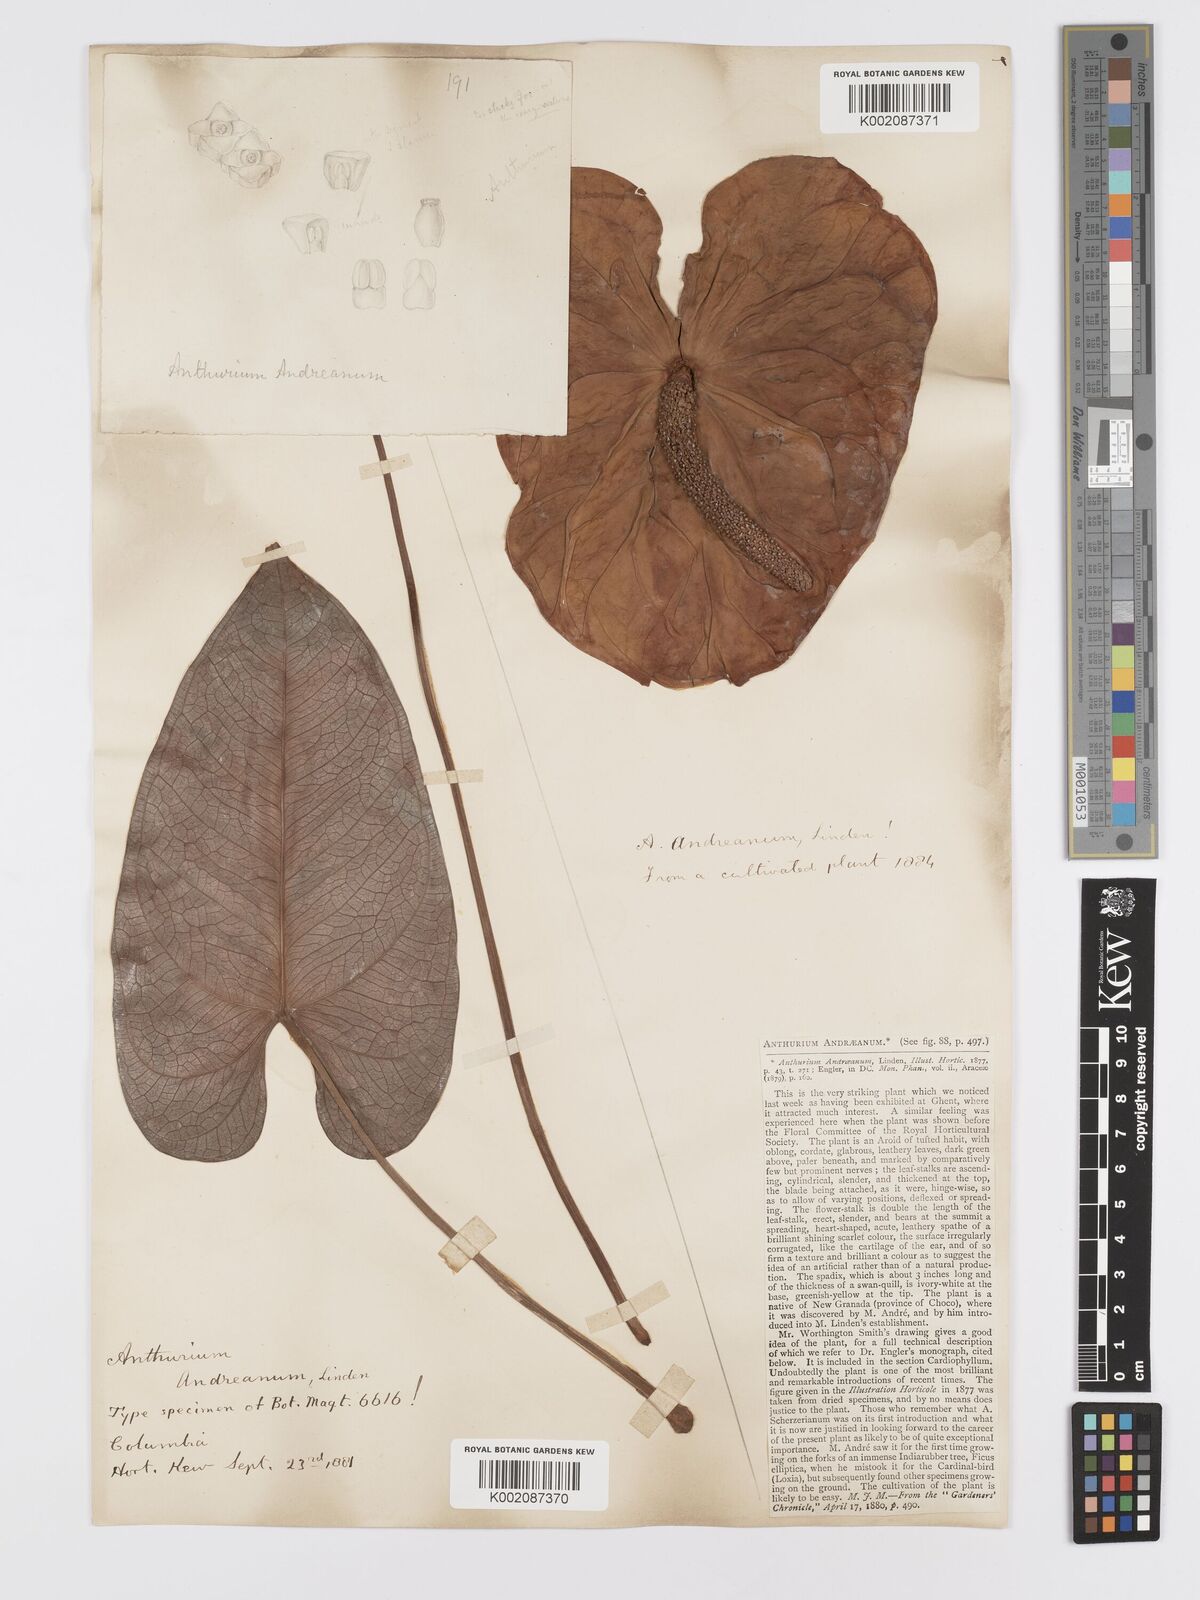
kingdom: Plantae
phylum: Tracheophyta
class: Liliopsida
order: Alismatales
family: Araceae
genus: Anthurium
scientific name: Anthurium andraeanum
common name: Flamingo-flower
